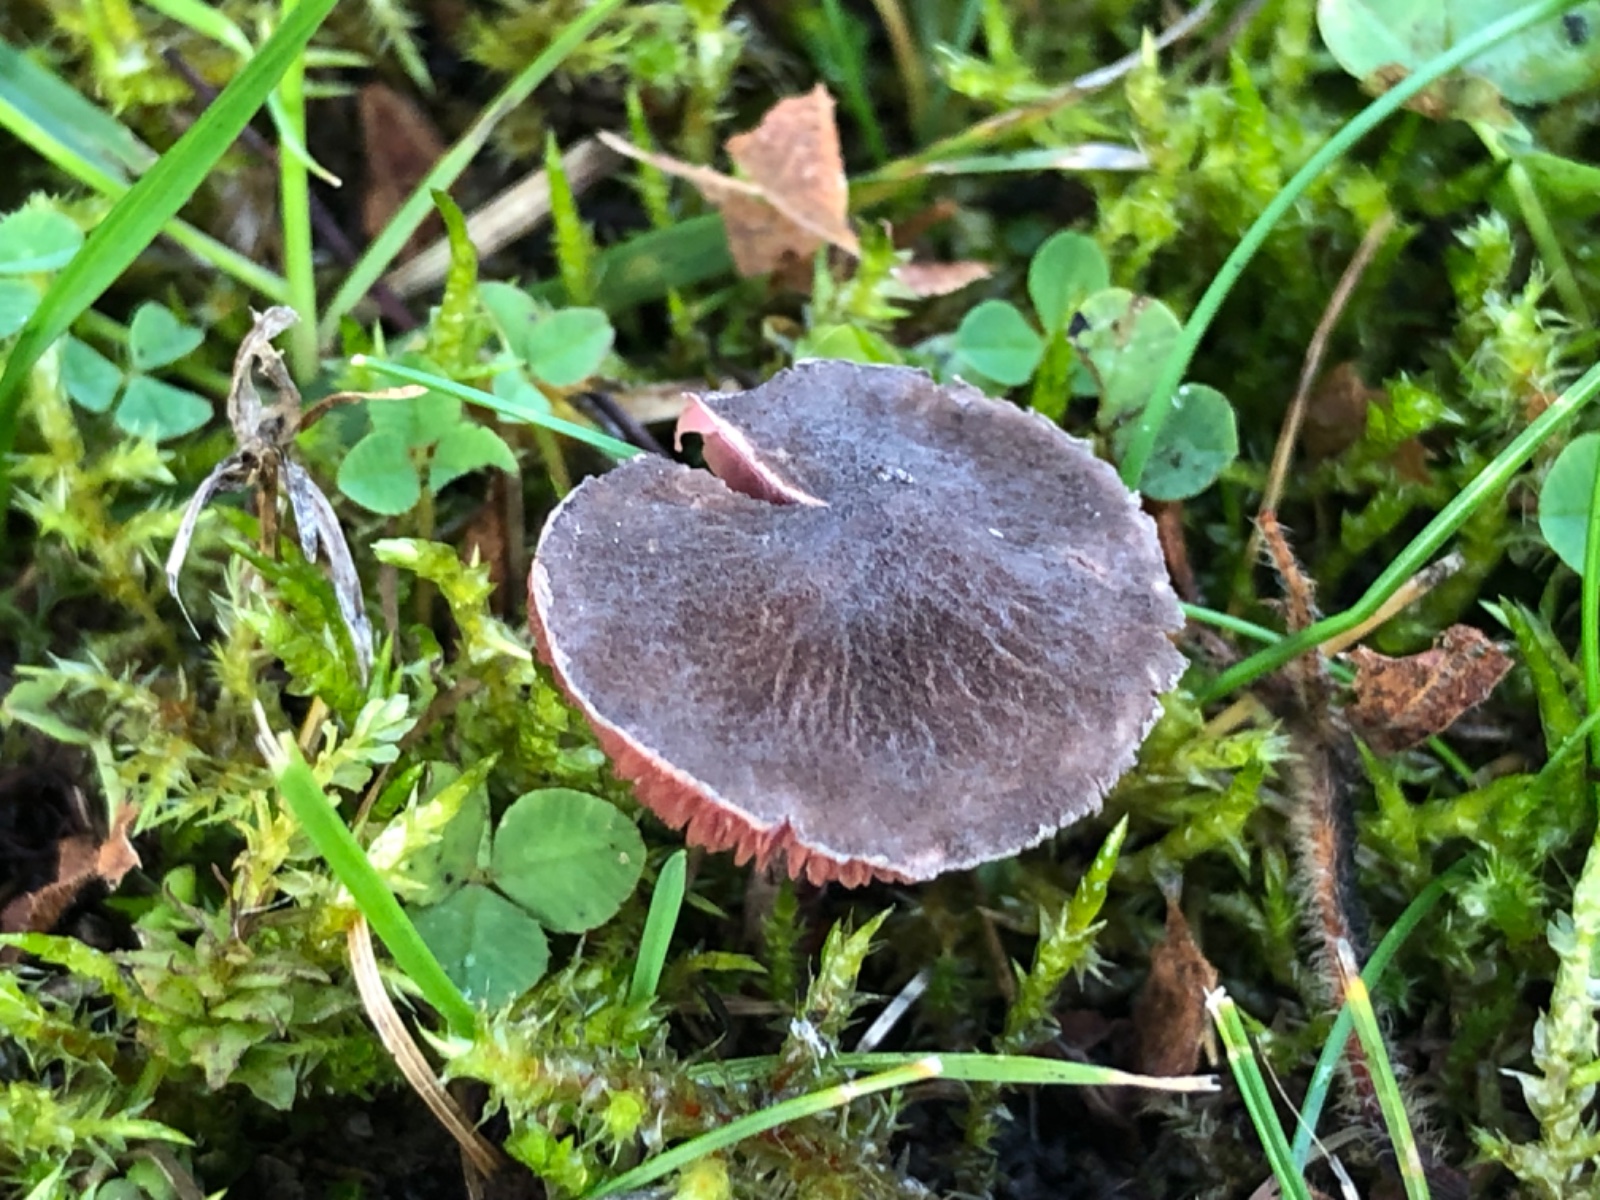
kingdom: Fungi
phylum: Basidiomycota
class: Agaricomycetes
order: Agaricales
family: Agaricaceae
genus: Melanophyllum
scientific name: Melanophyllum haematospermum
